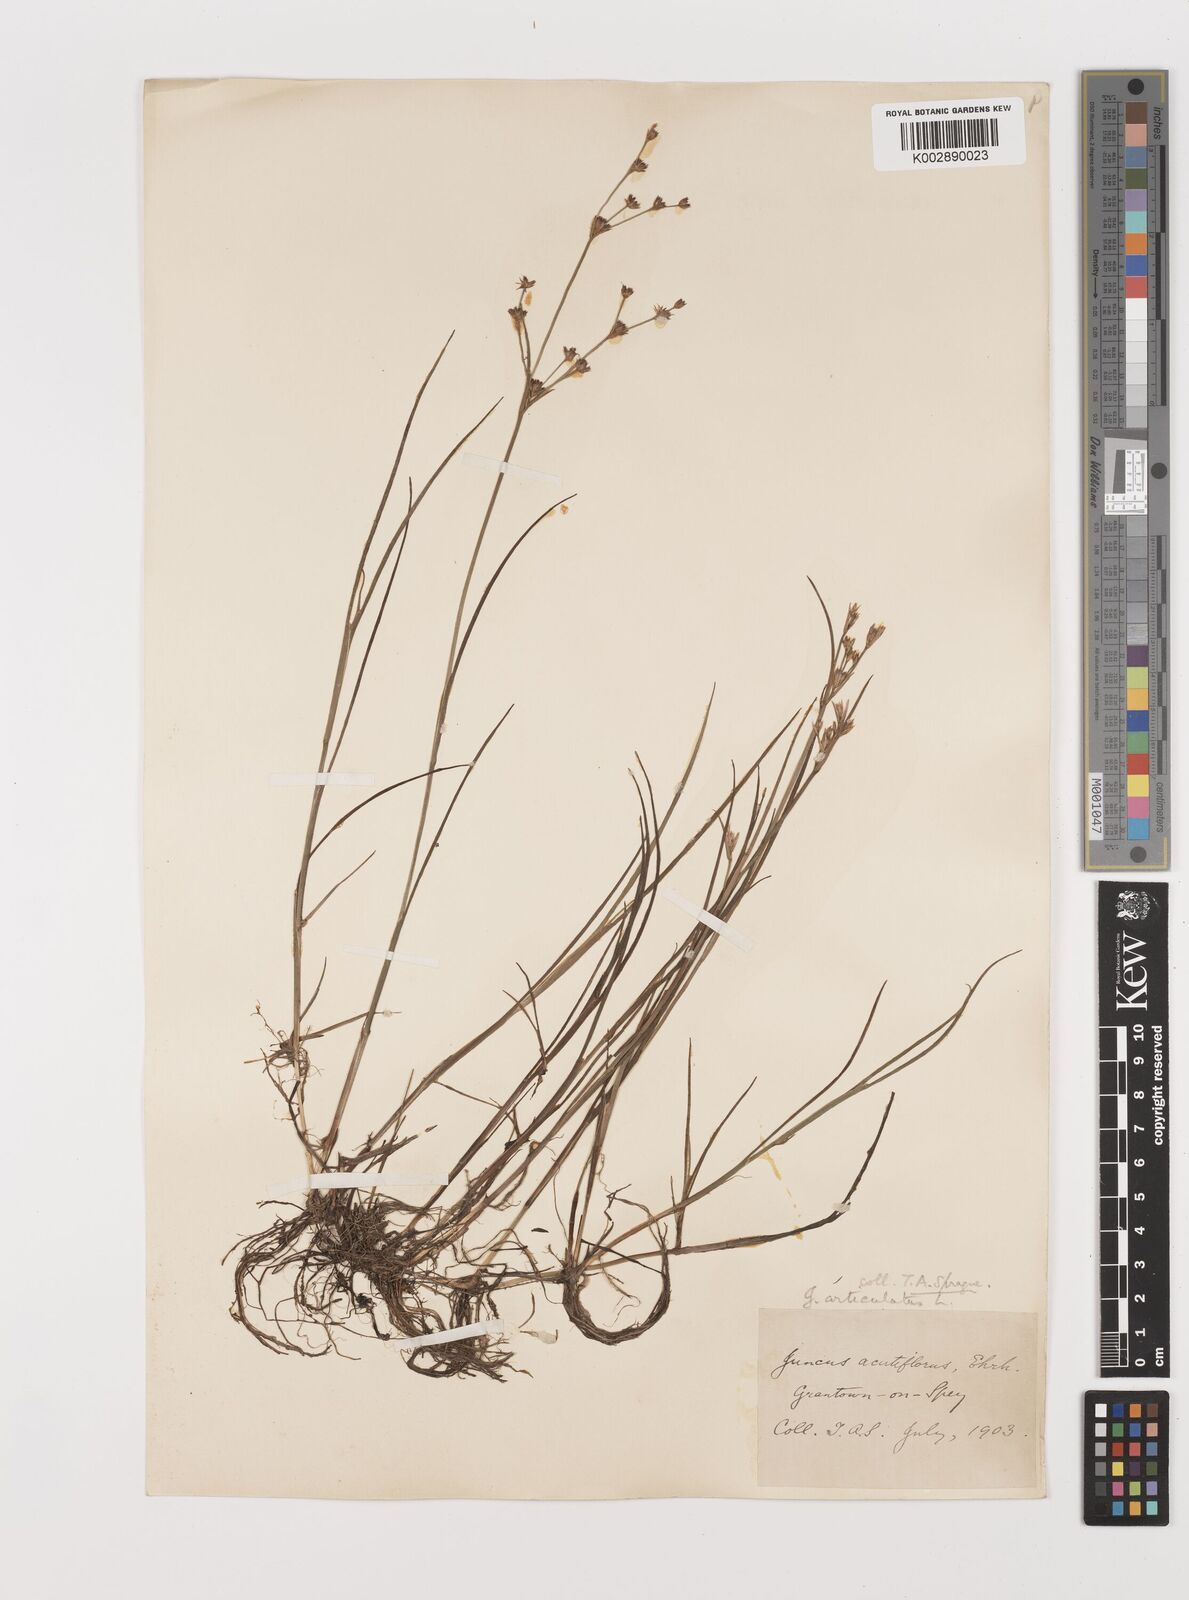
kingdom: Plantae
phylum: Tracheophyta
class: Liliopsida
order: Poales
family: Juncaceae
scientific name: Juncaceae
